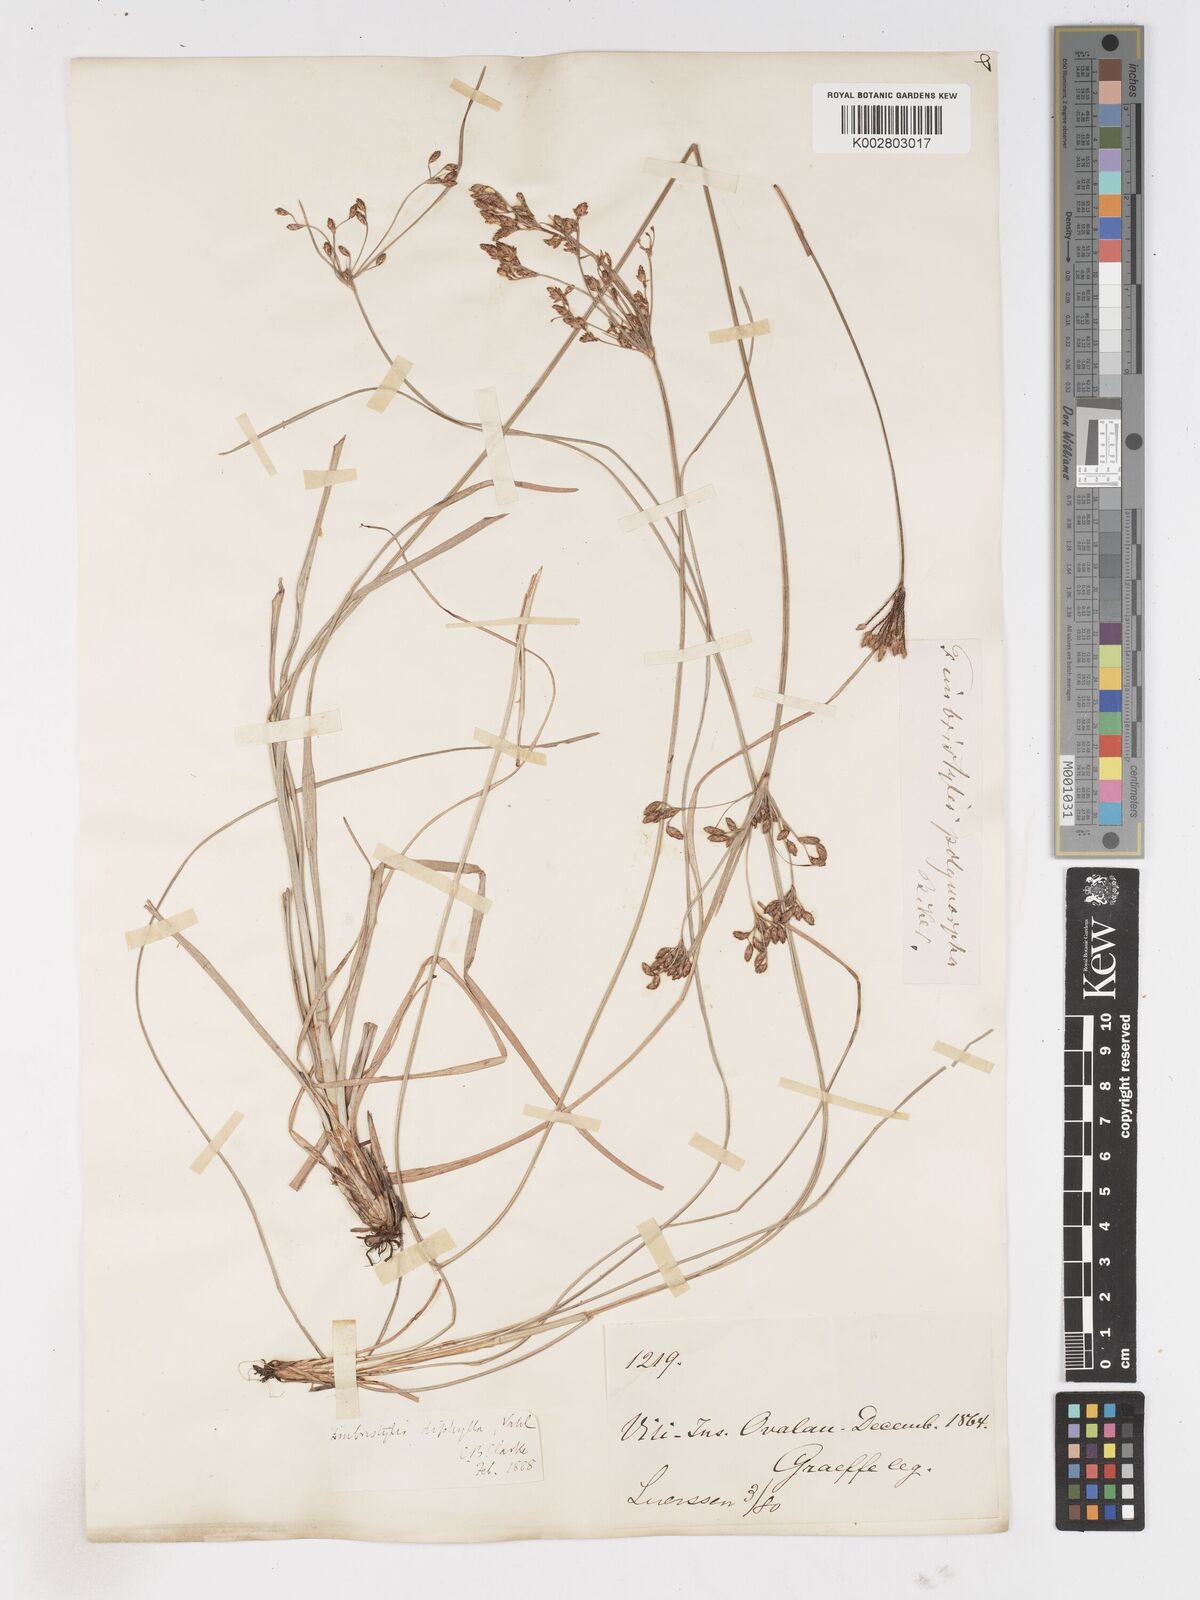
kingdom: Plantae
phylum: Tracheophyta
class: Liliopsida
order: Poales
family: Cyperaceae
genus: Fimbristylis
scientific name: Fimbristylis dichotoma
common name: Forked fimbry
